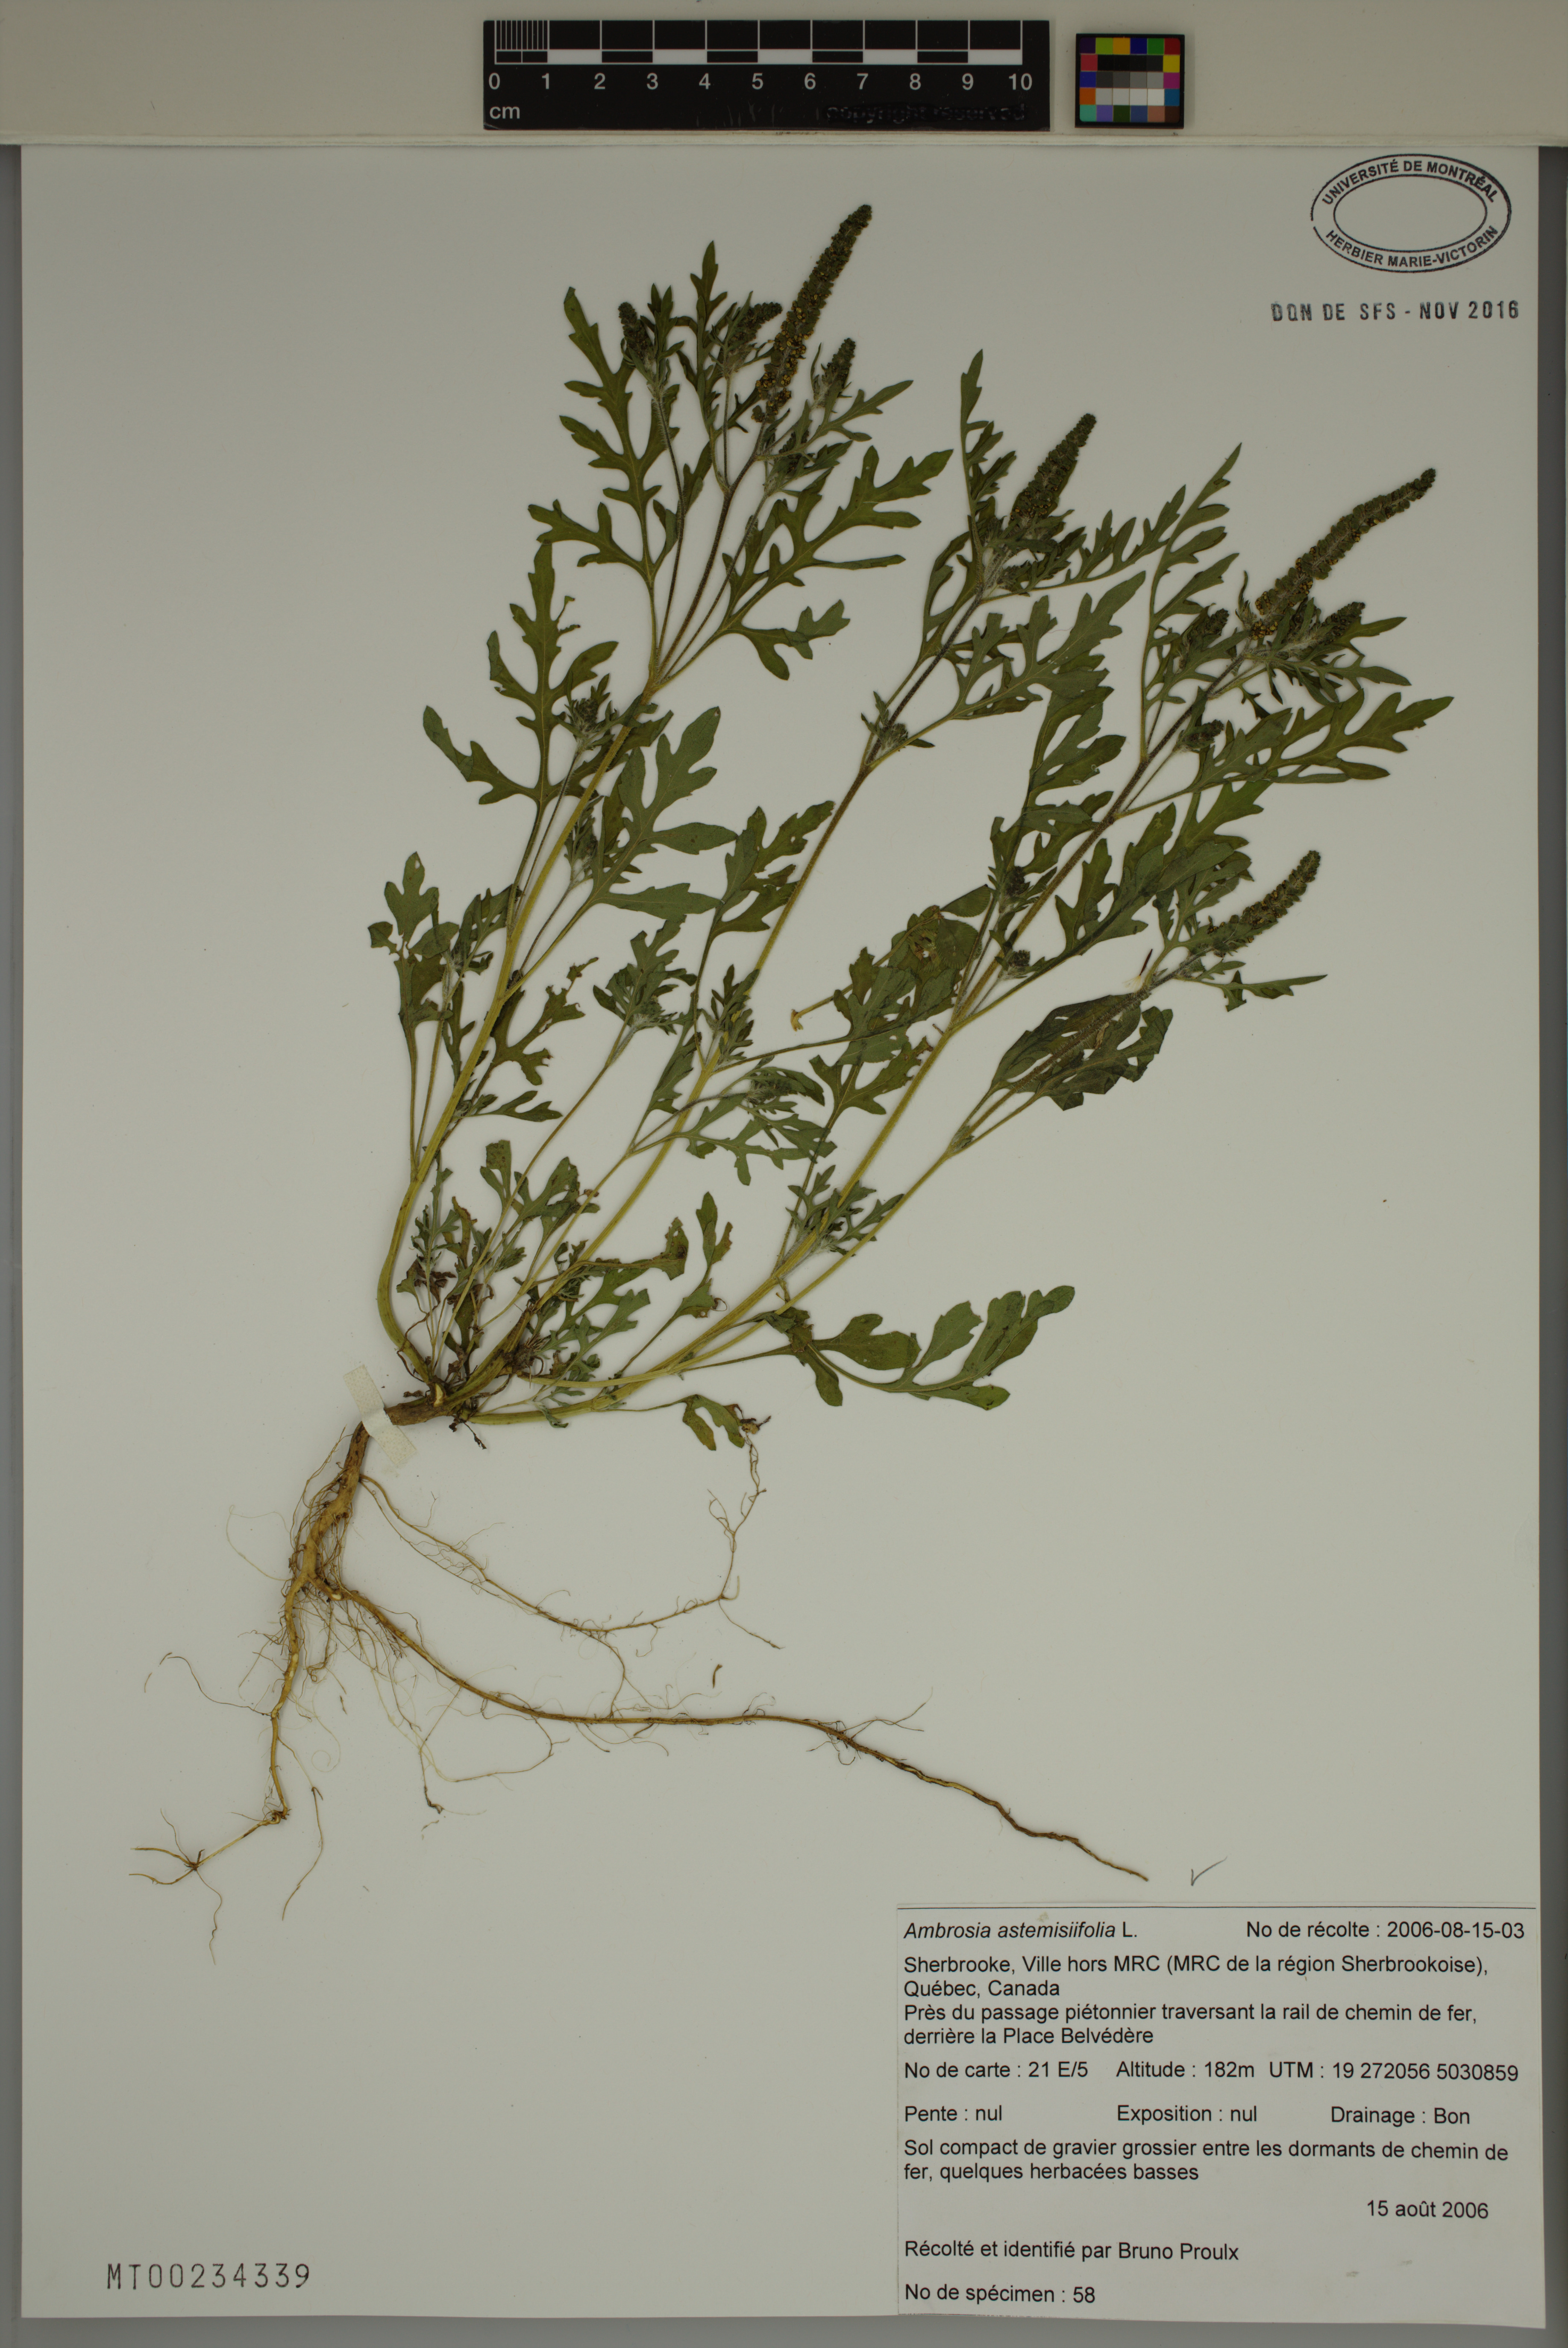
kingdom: Plantae
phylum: Tracheophyta
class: Magnoliopsida
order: Asterales
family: Asteraceae
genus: Ambrosia
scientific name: Ambrosia artemisiifolia
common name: Annual ragweed
